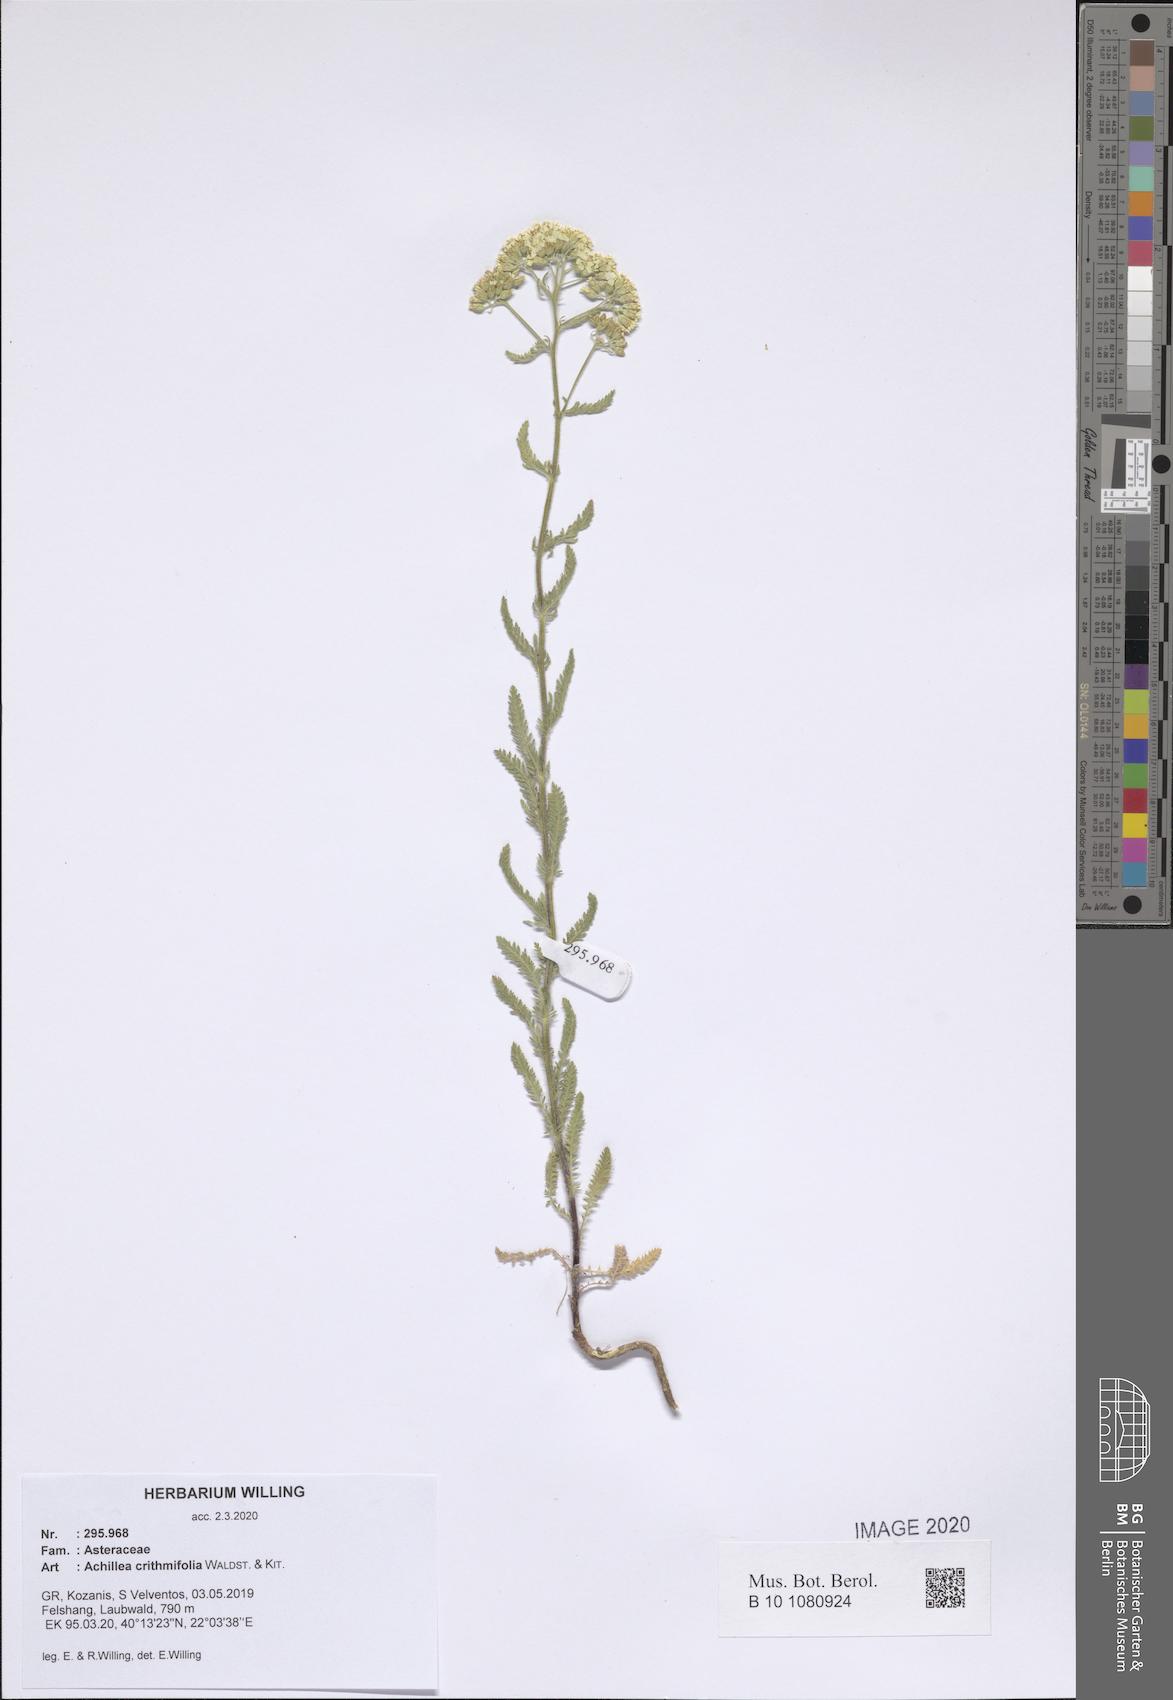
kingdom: Plantae
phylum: Tracheophyta
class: Magnoliopsida
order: Asterales
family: Asteraceae
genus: Achillea
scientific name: Achillea crithmifolia
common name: Yarrow
